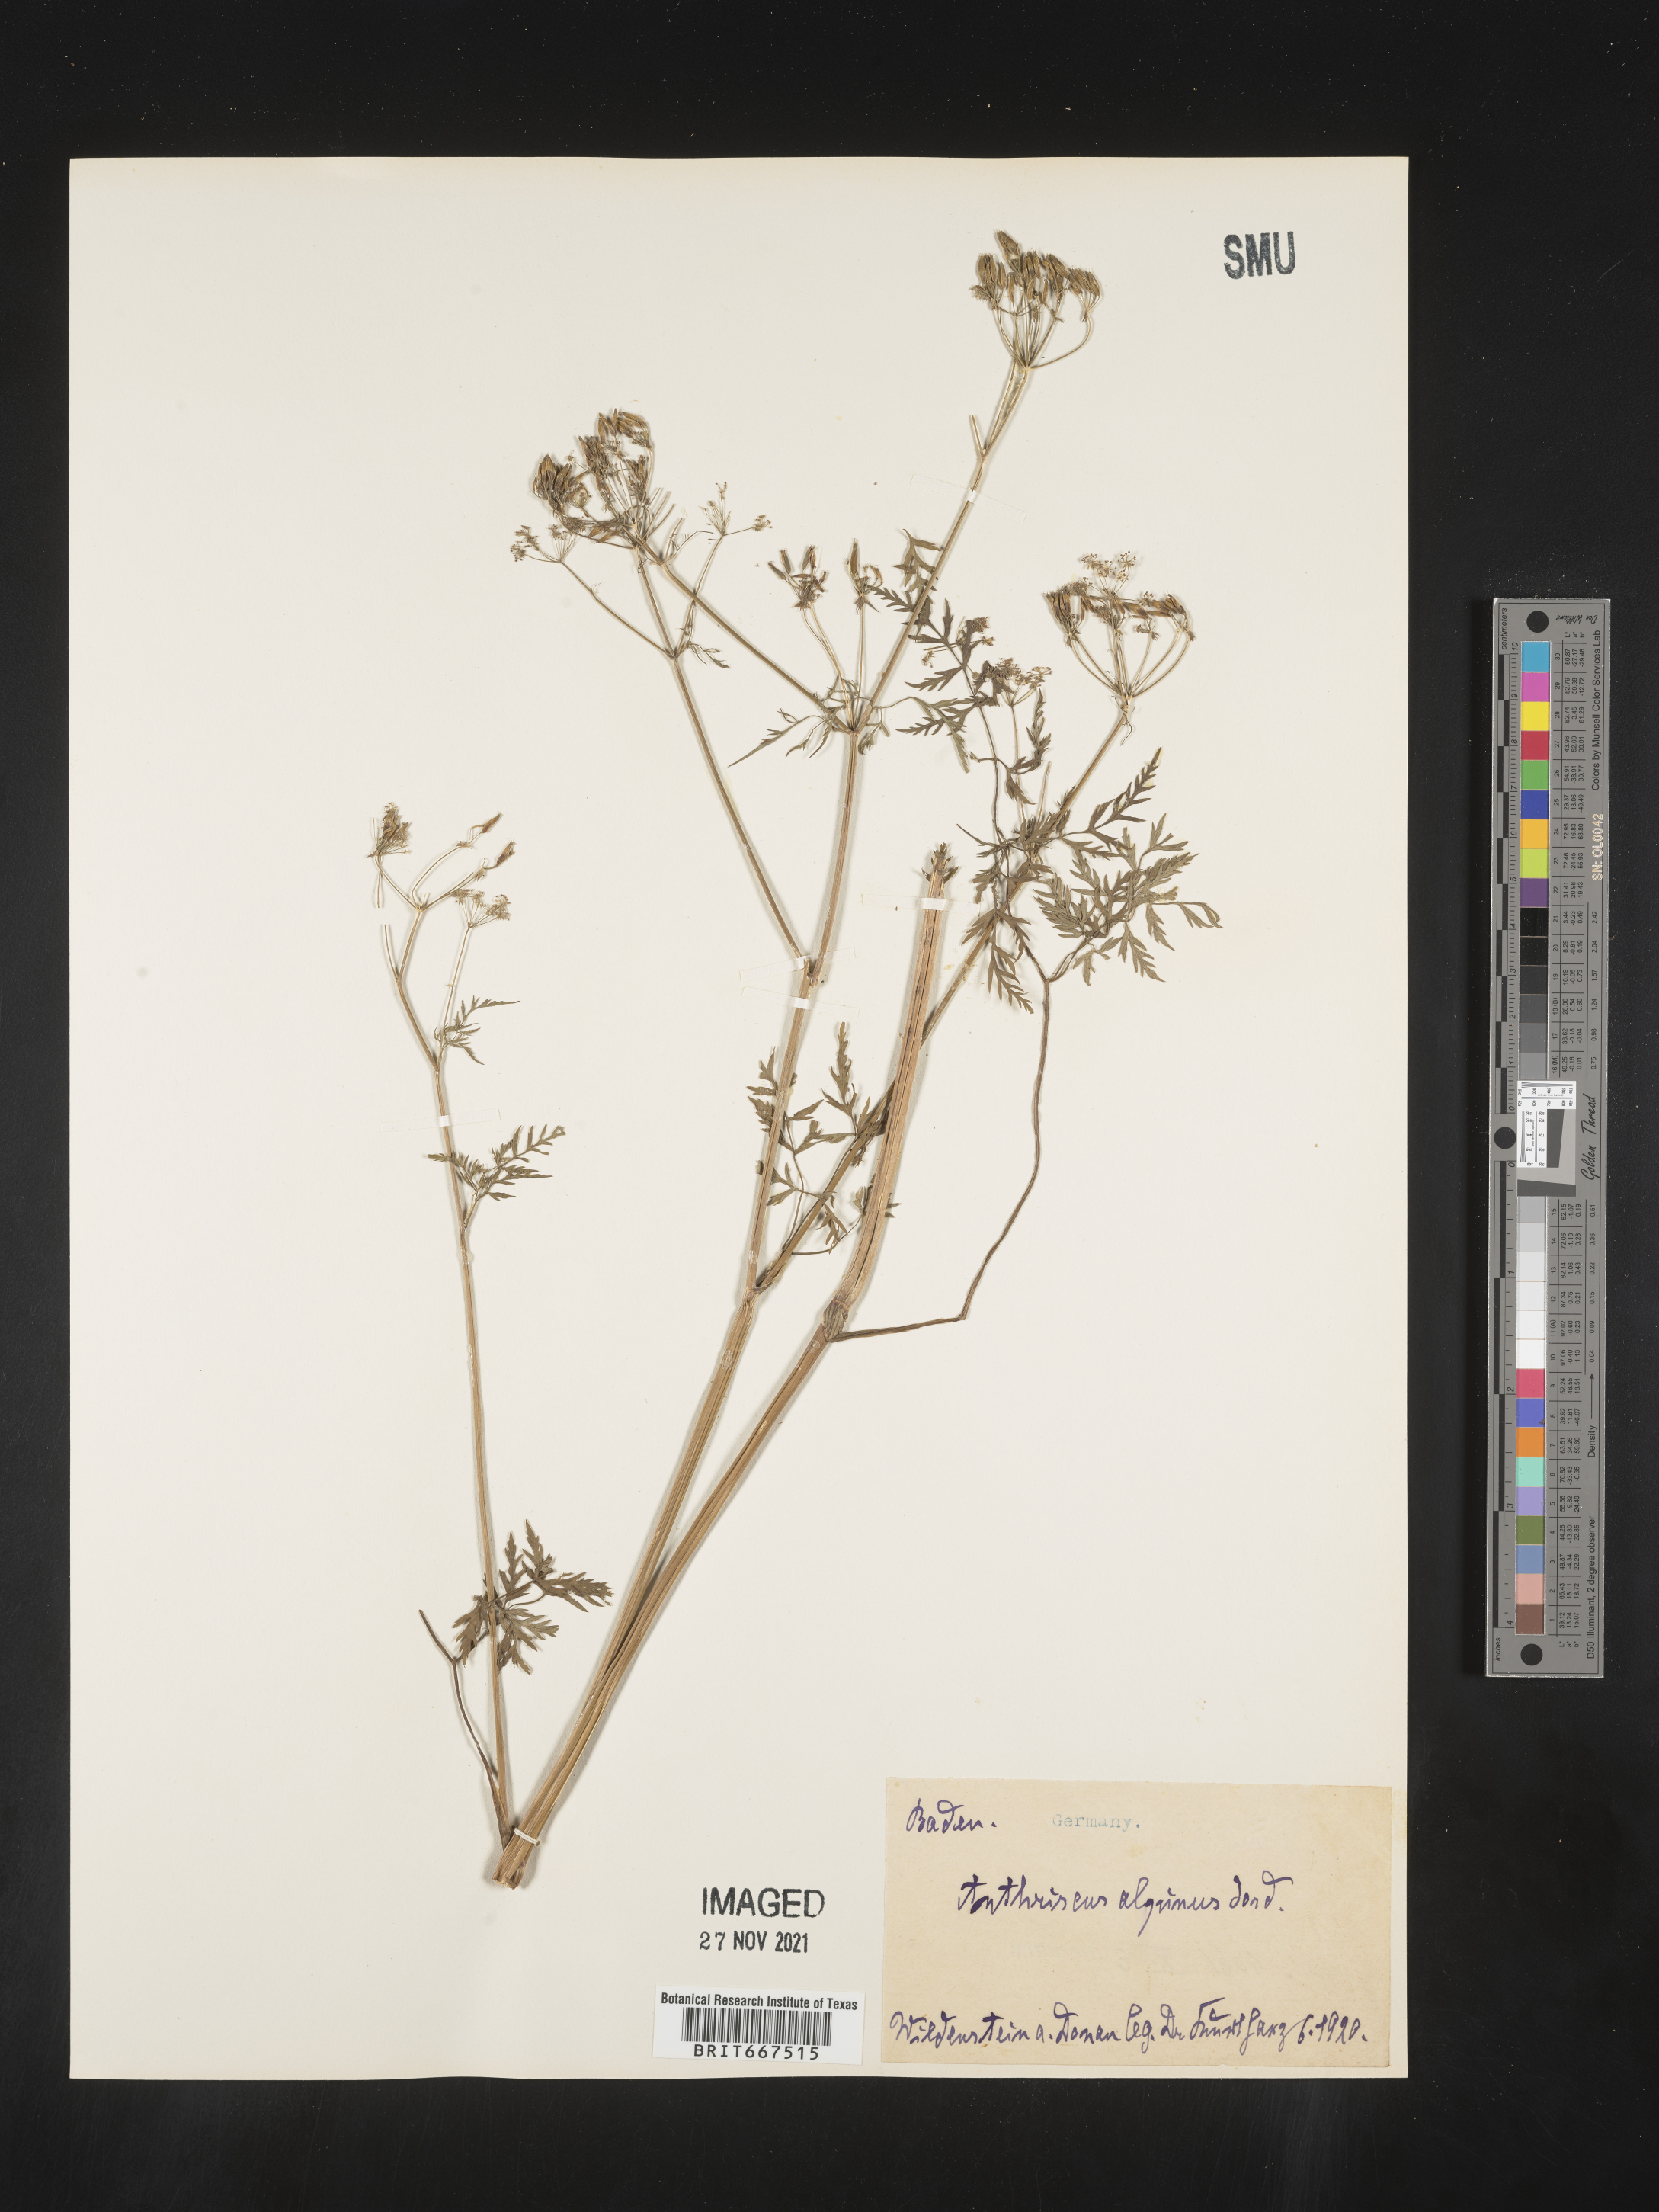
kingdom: Plantae
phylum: Tracheophyta
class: Magnoliopsida
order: Apiales
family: Apiaceae
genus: Anthriscus
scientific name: Anthriscus
